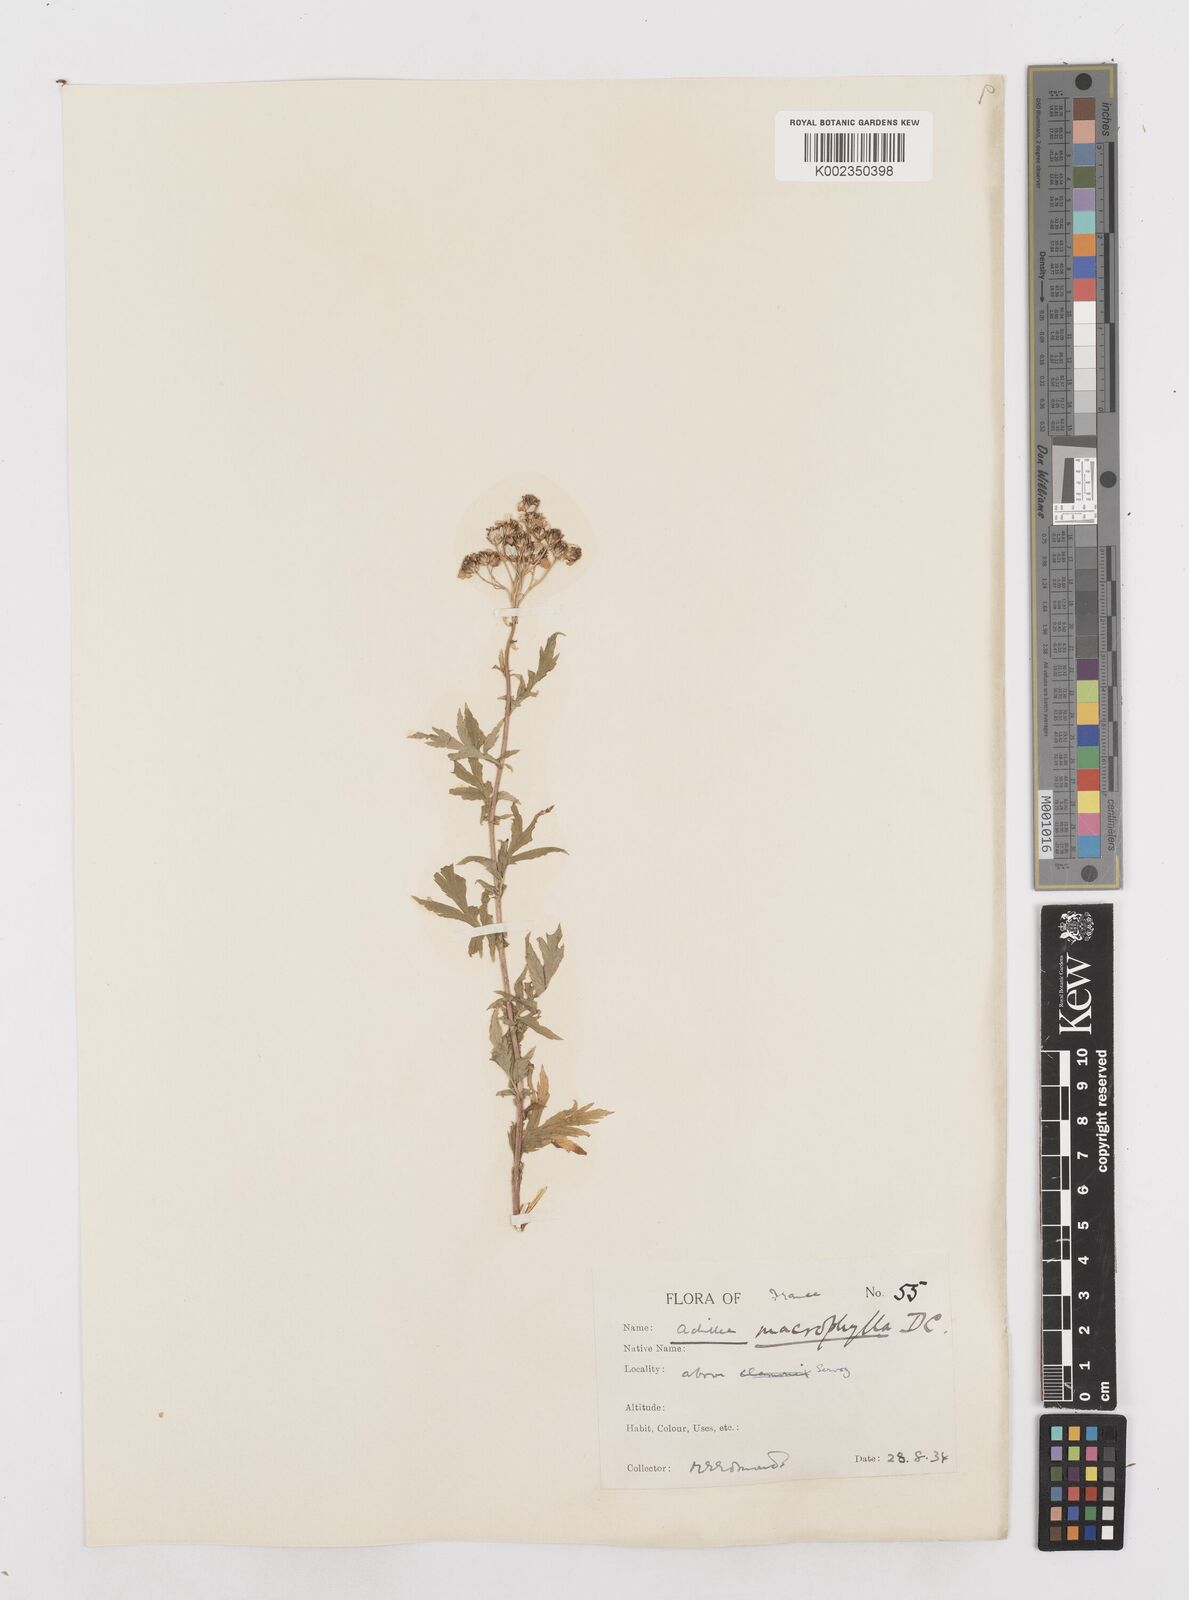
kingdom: Plantae
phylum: Tracheophyta
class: Magnoliopsida
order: Asterales
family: Asteraceae
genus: Achillea
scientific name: Achillea macrophylla
